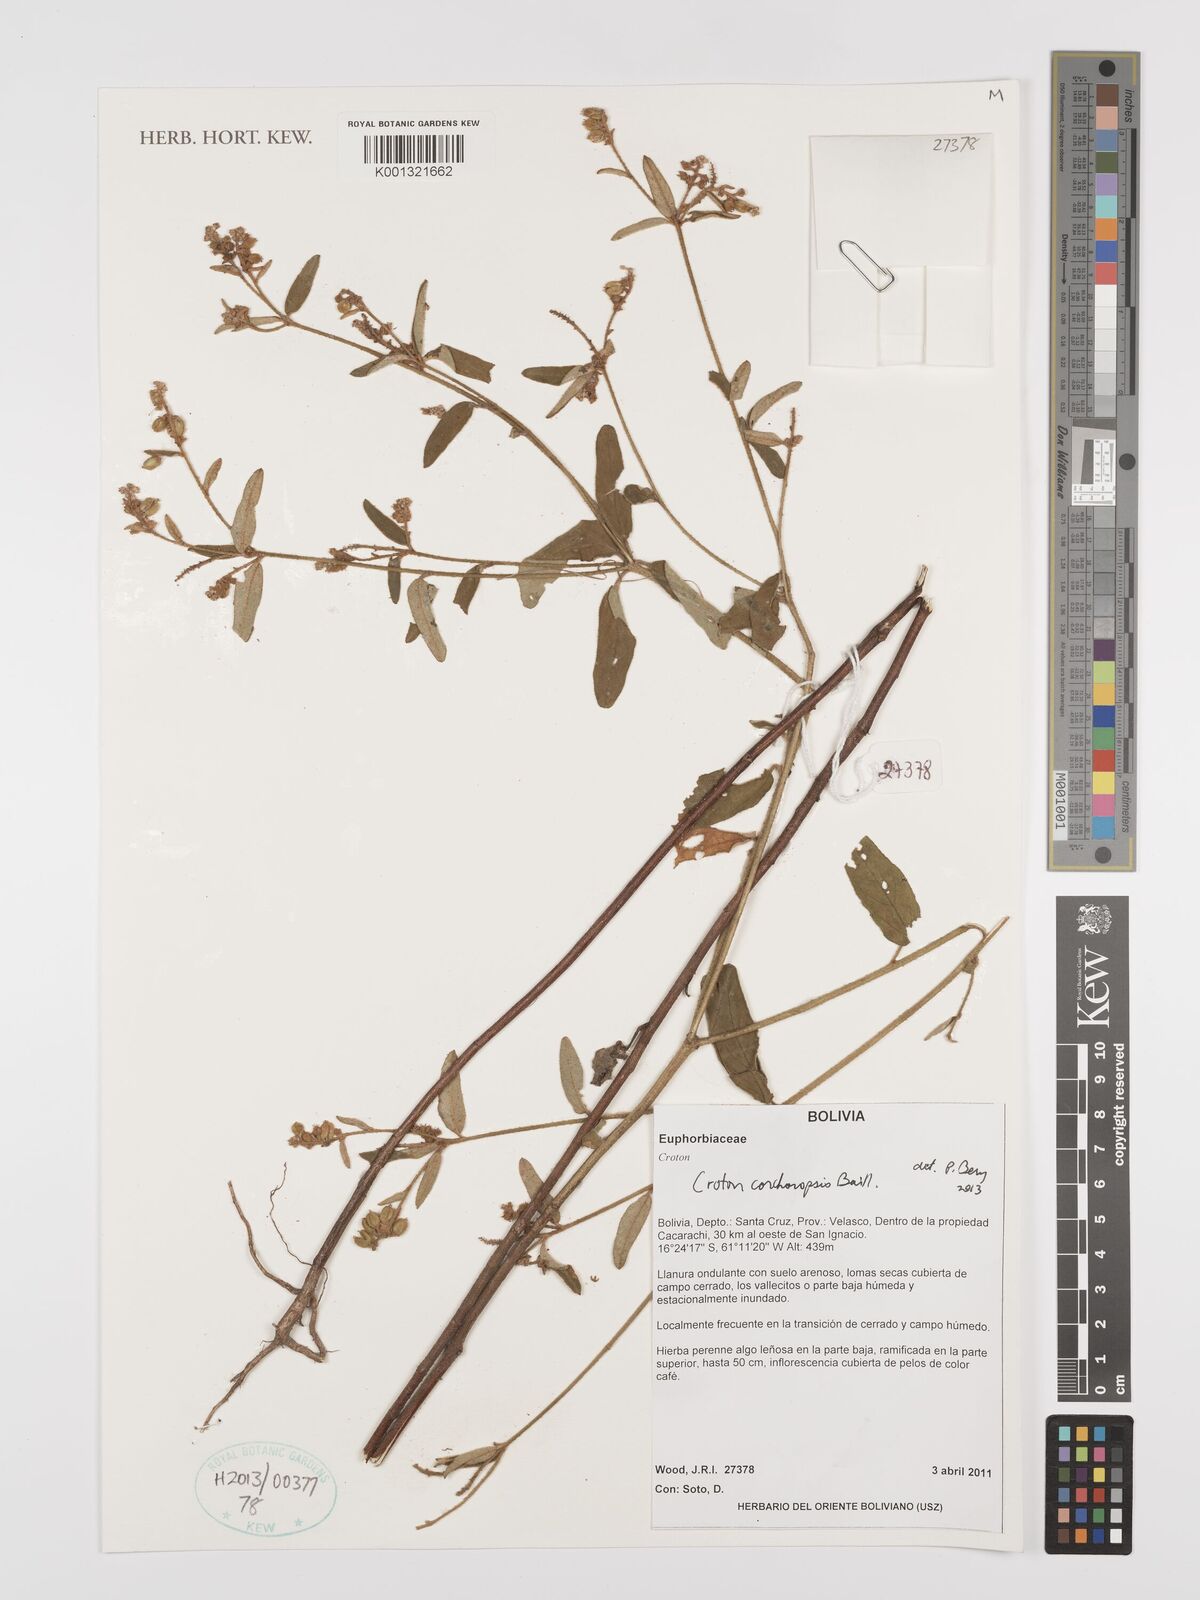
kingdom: Plantae
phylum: Tracheophyta
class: Magnoliopsida
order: Malpighiales
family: Euphorbiaceae
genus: Croton
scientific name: Croton corchoropsis
